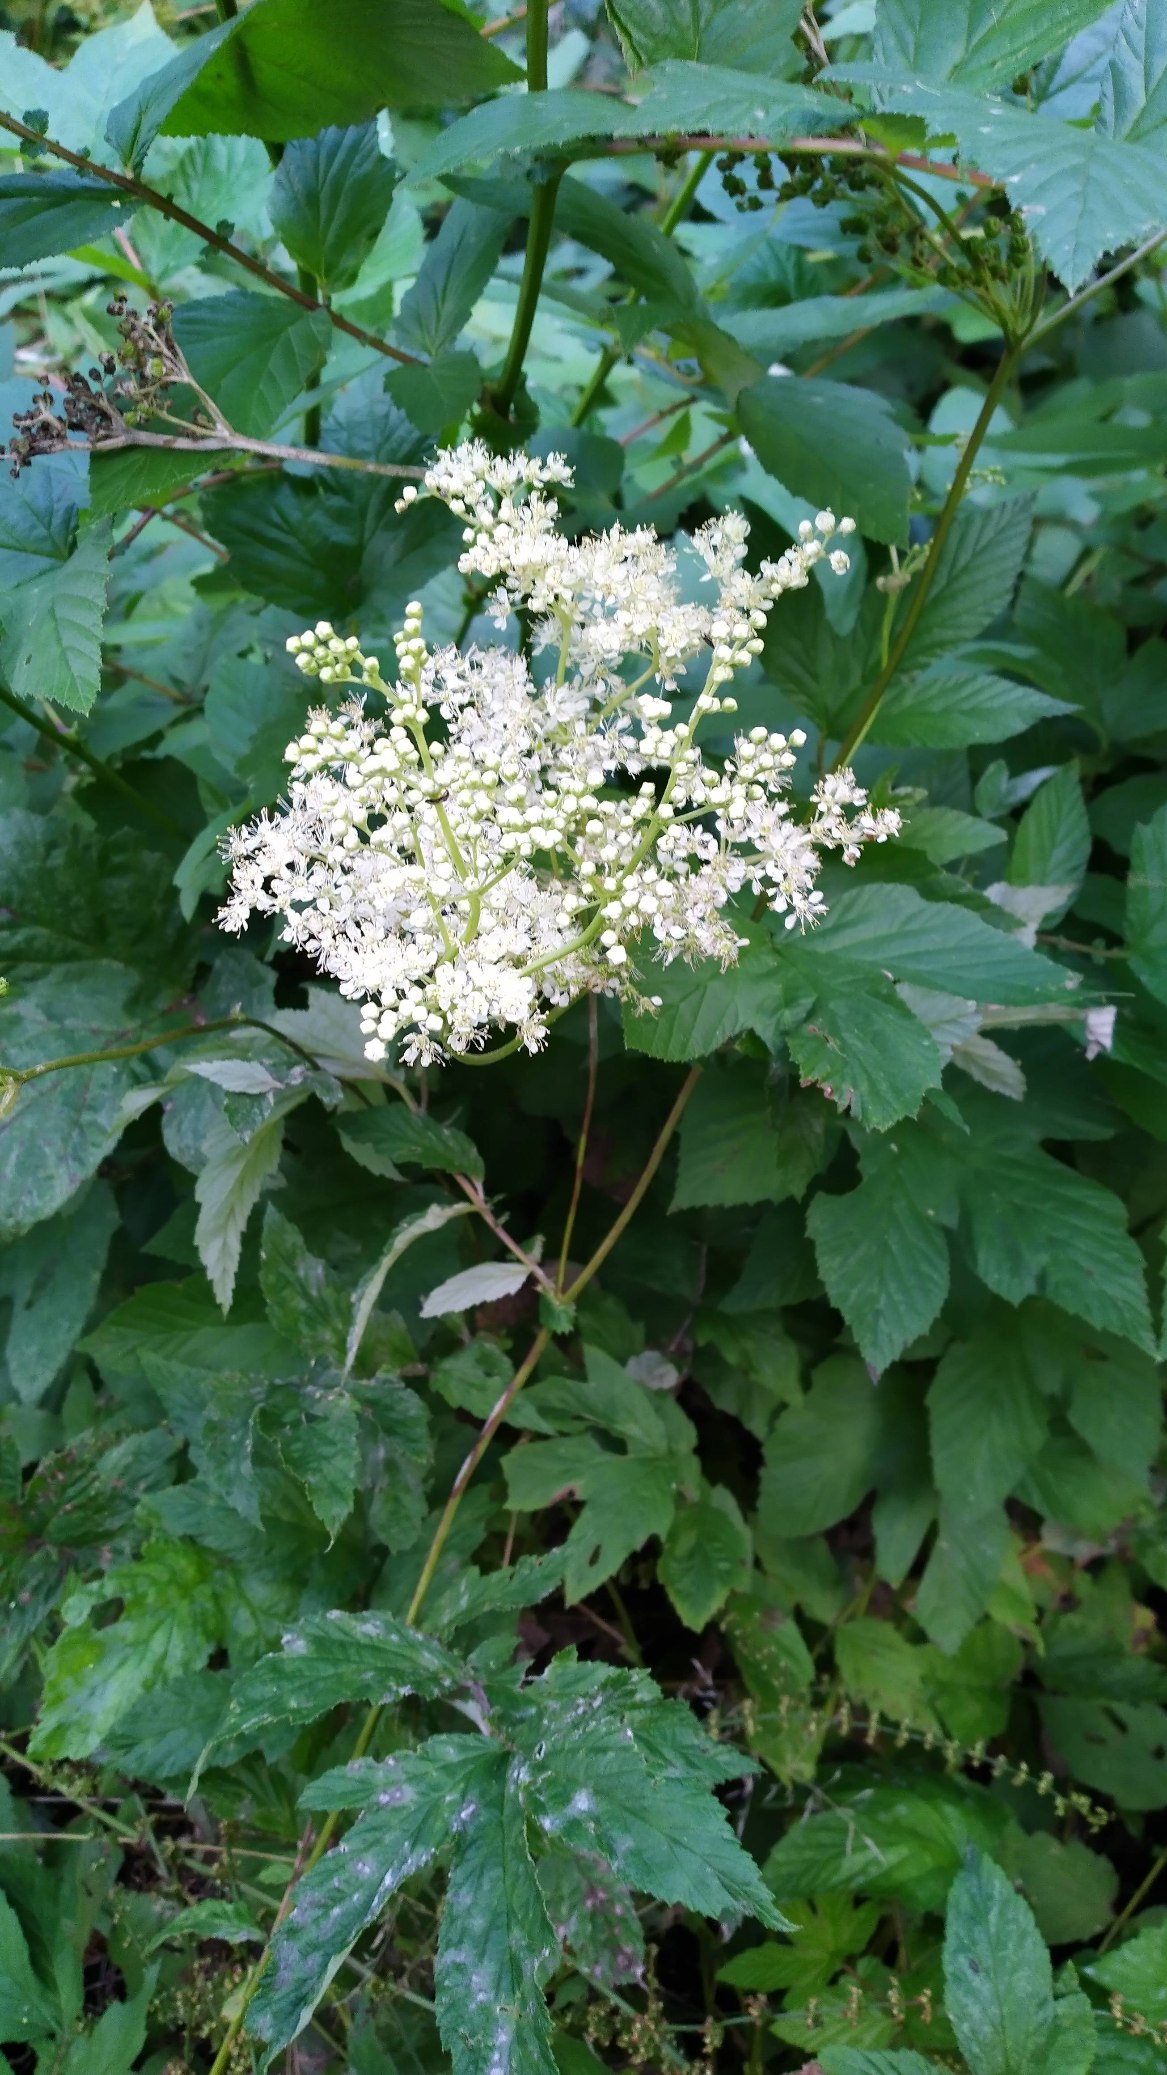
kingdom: Plantae
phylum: Tracheophyta
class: Magnoliopsida
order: Rosales
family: Rosaceae
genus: Filipendula
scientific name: Filipendula ulmaria
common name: Almindelig mjødurt
